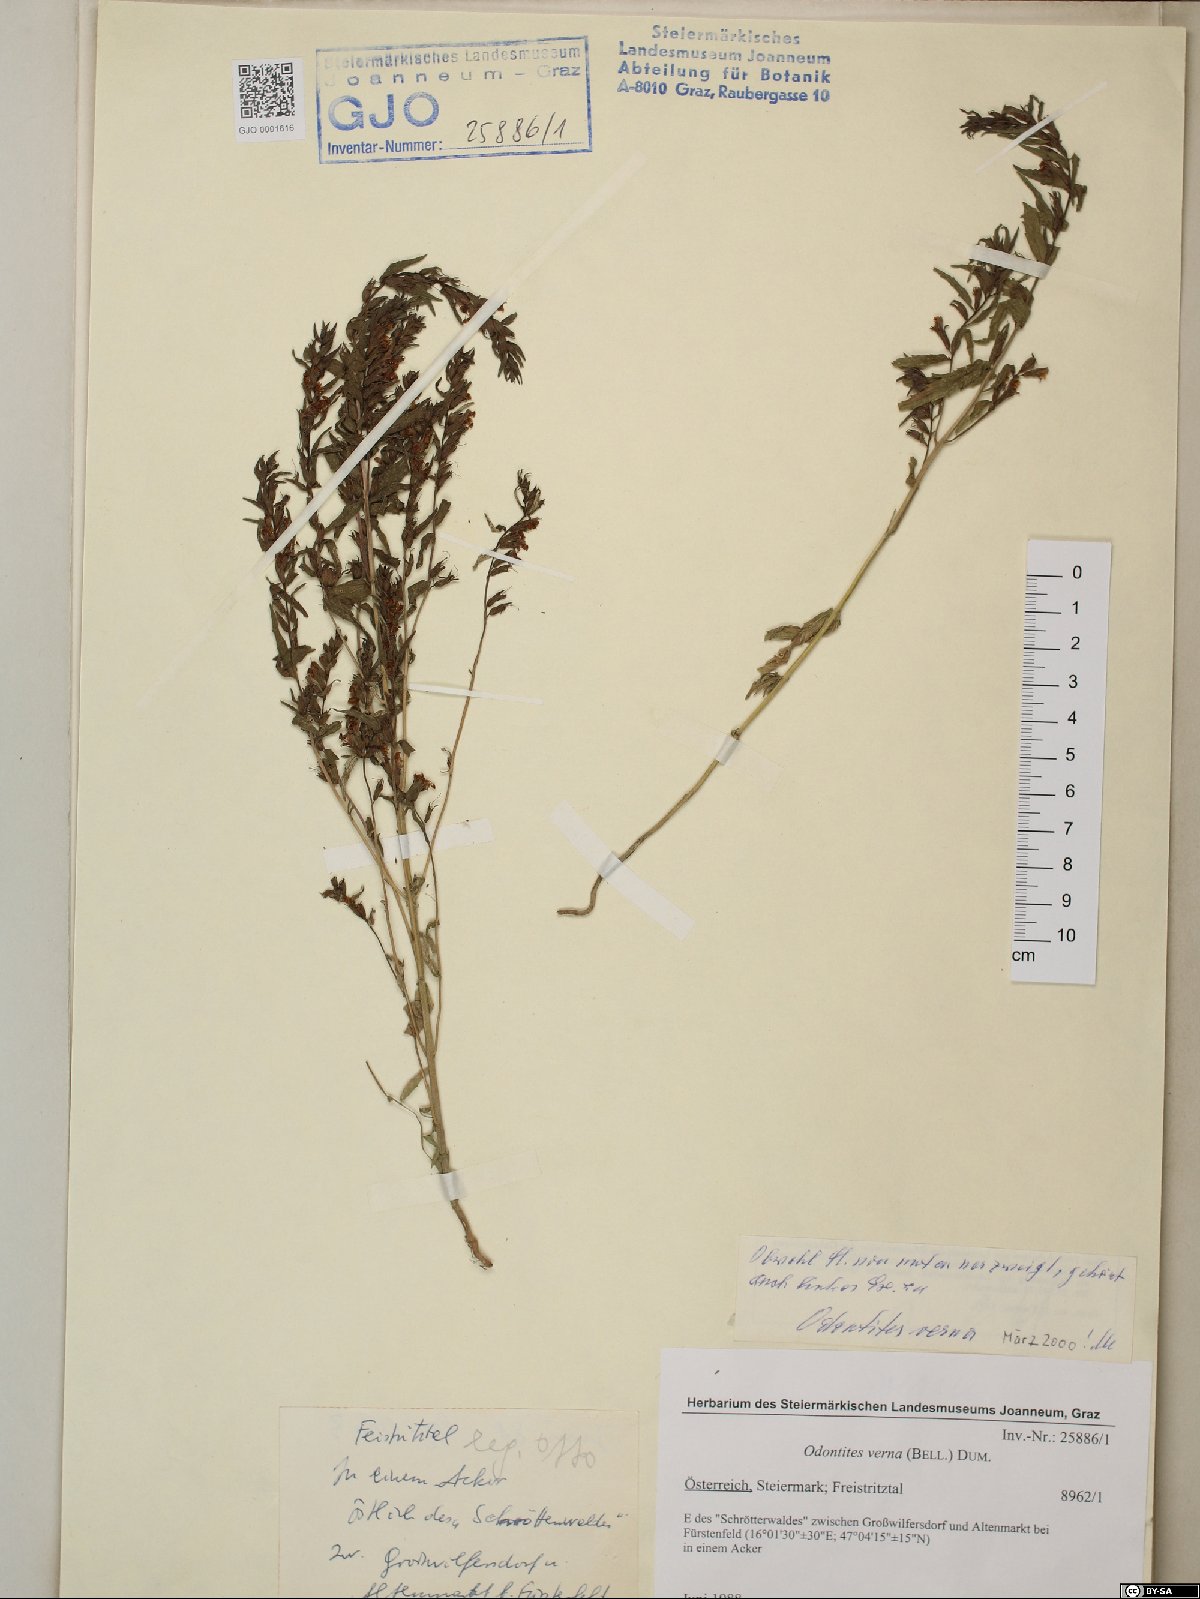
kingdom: Plantae
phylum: Tracheophyta
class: Magnoliopsida
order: Lamiales
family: Orobanchaceae
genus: Odontites
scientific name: Odontites vernus
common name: Red bartsia
